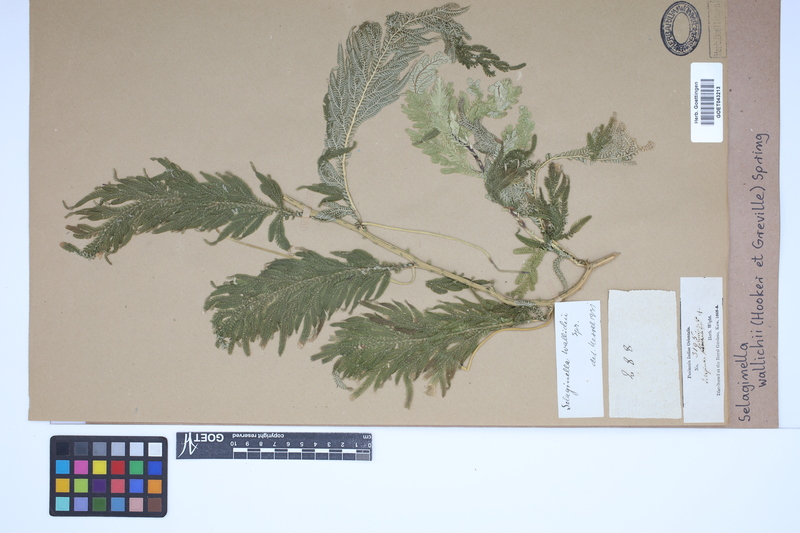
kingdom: Plantae
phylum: Tracheophyta
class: Lycopodiopsida
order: Selaginellales
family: Selaginellaceae
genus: Selaginella
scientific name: Selaginella wallichii
